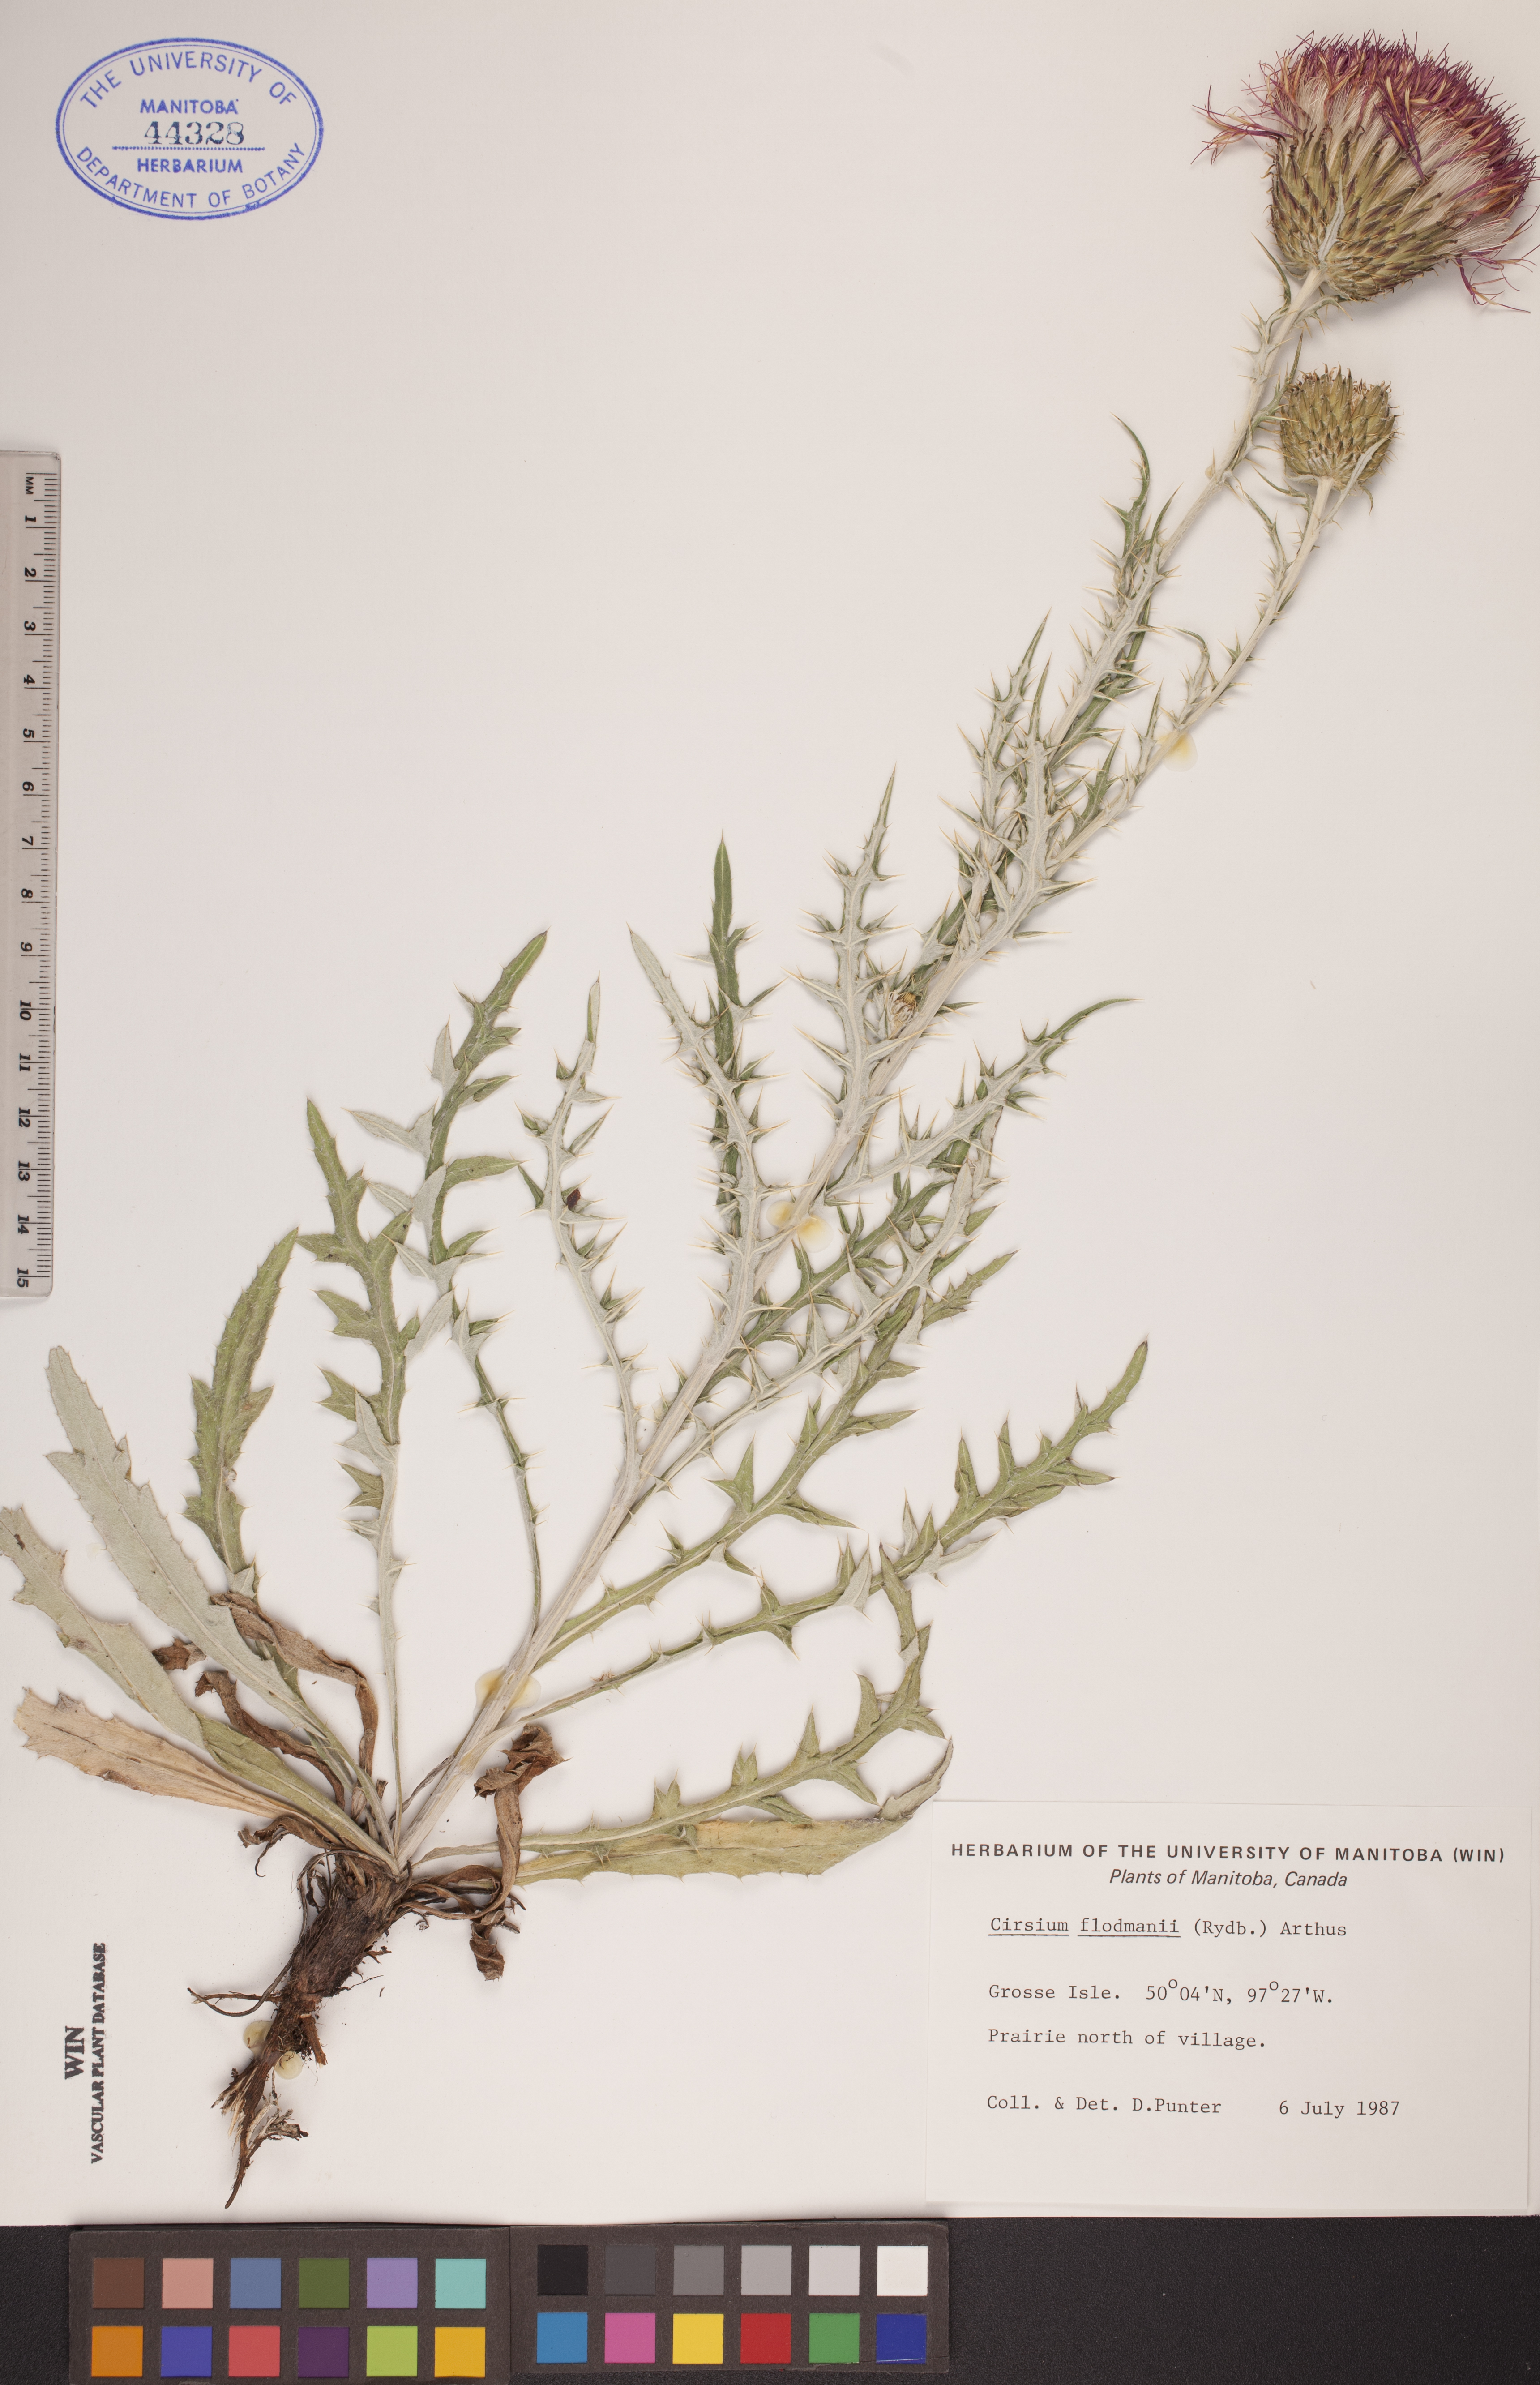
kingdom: Plantae
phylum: Tracheophyta
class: Magnoliopsida
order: Asterales
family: Asteraceae
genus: Cirsium
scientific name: Cirsium flodmanii
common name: Flodman's thistle
